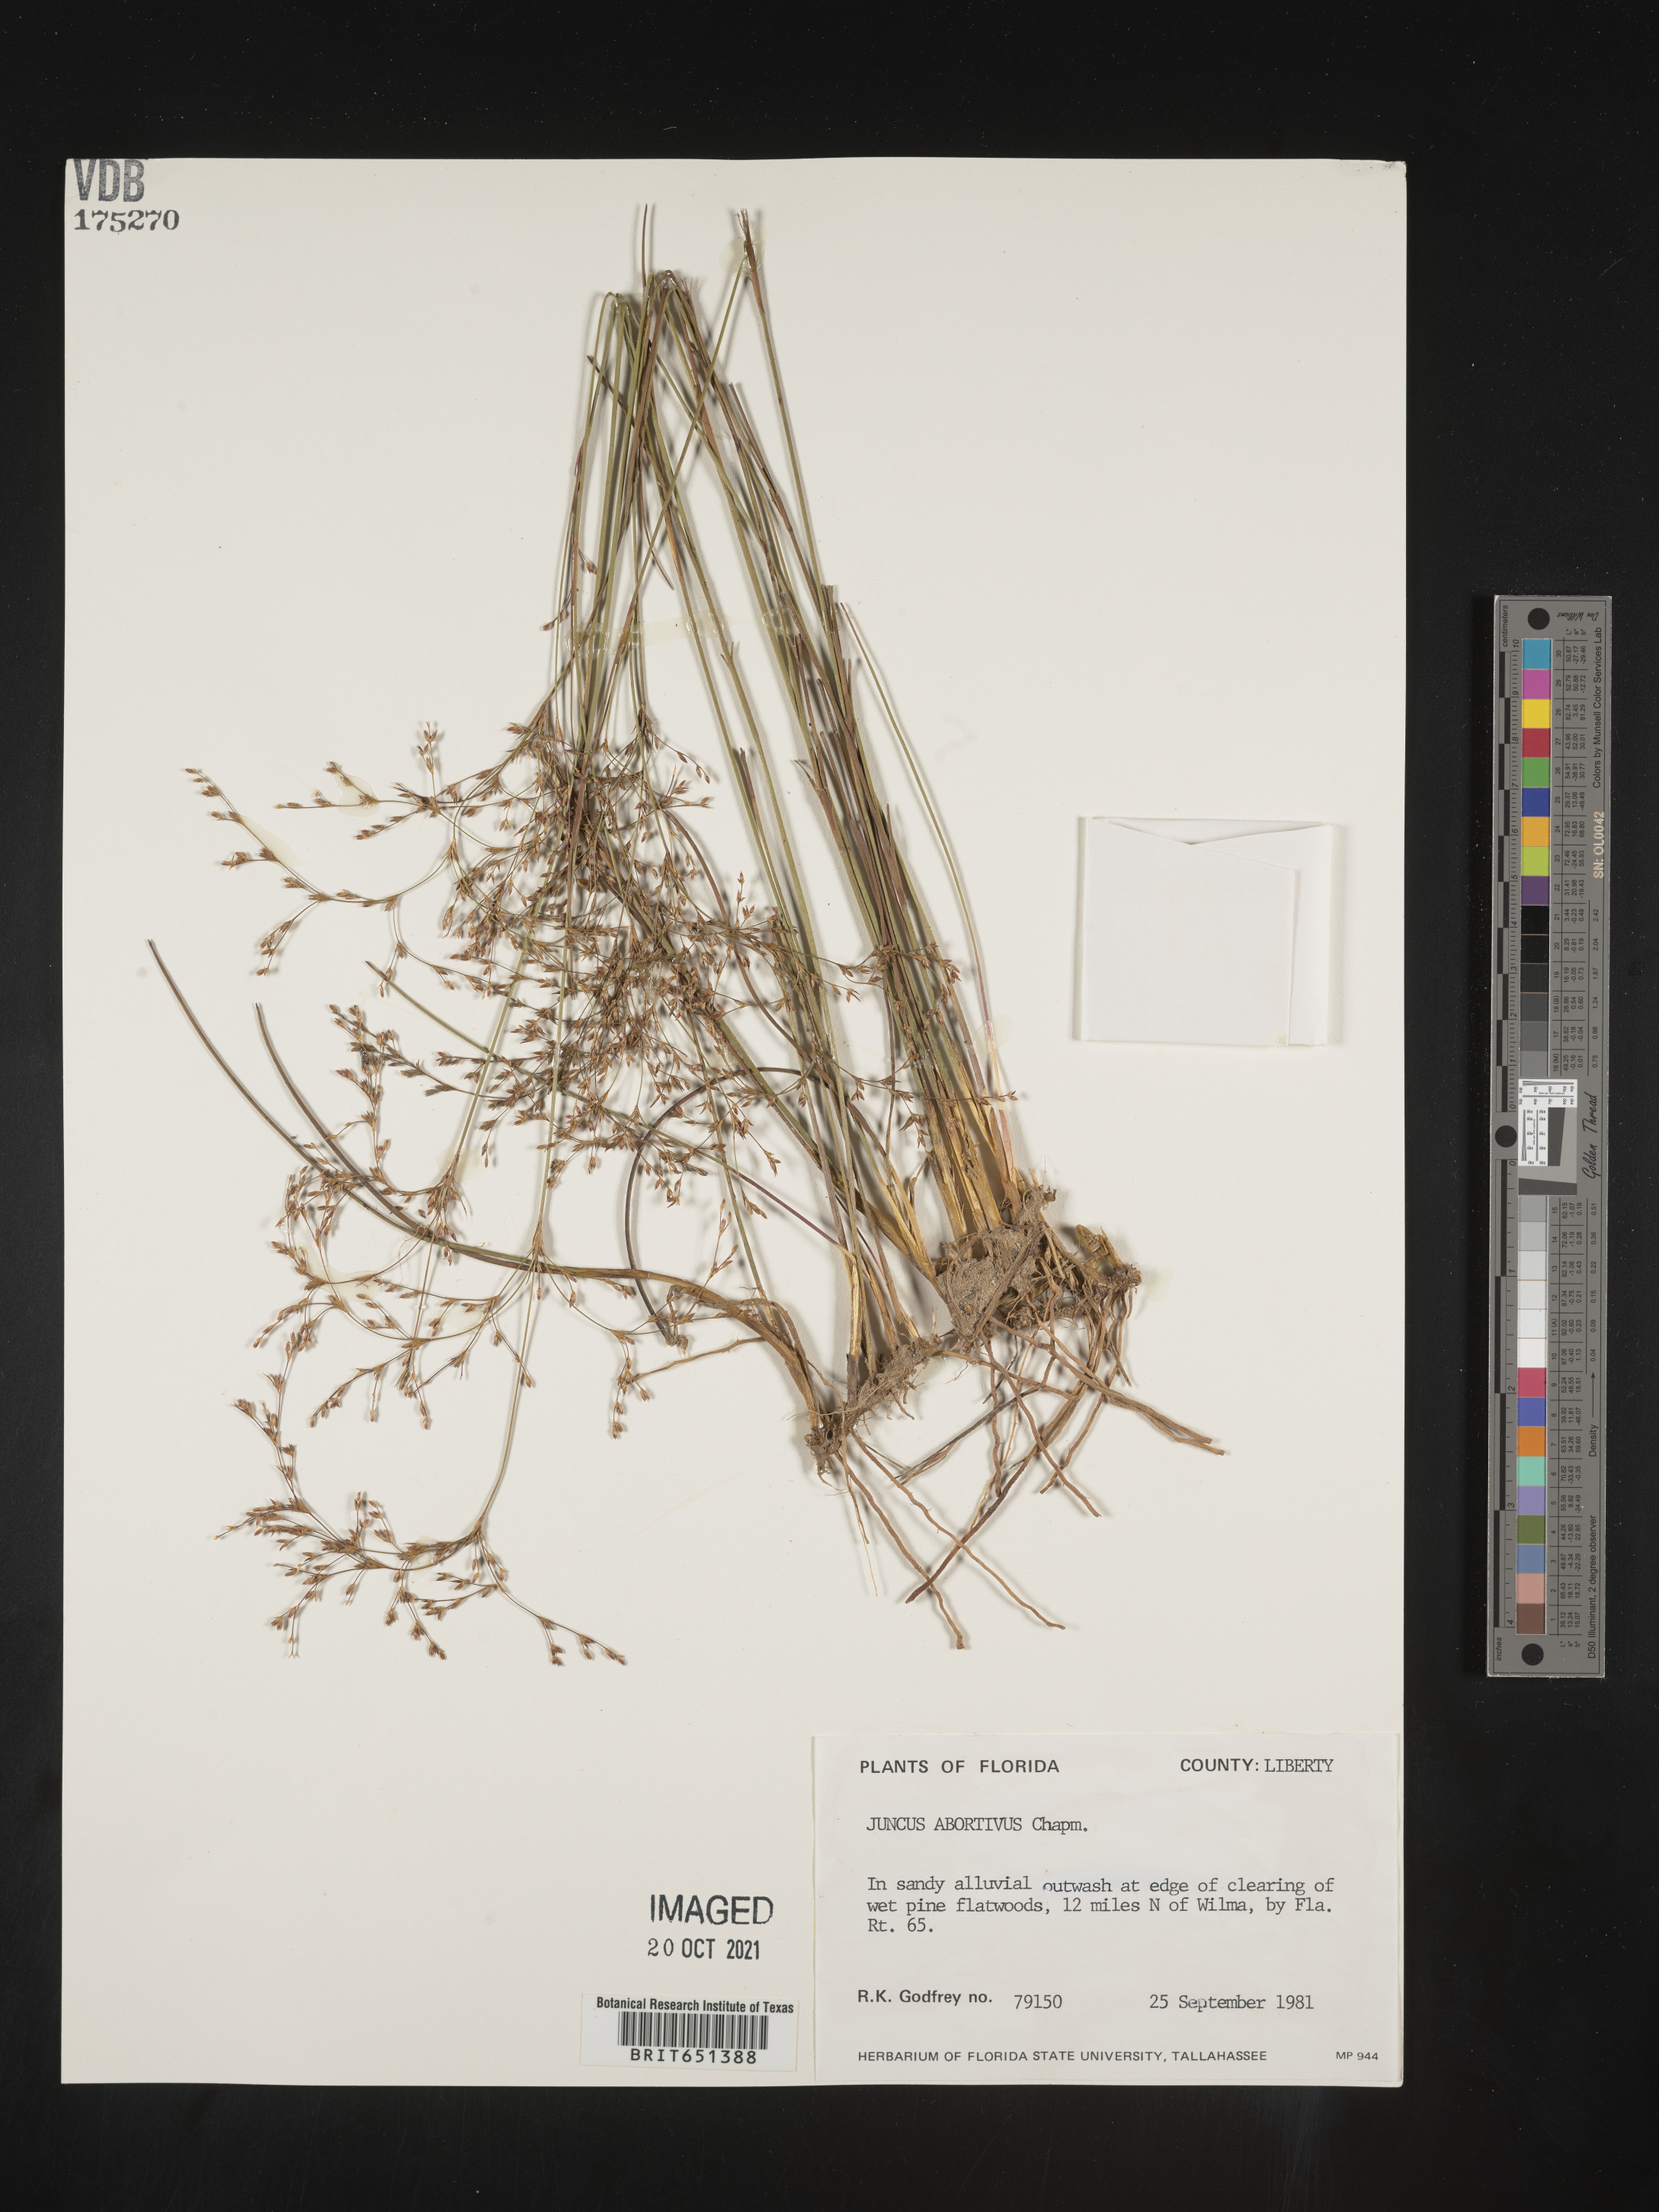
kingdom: Plantae
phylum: Tracheophyta
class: Liliopsida
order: Poales
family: Juncaceae
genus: Juncus
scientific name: Juncus abortivus
